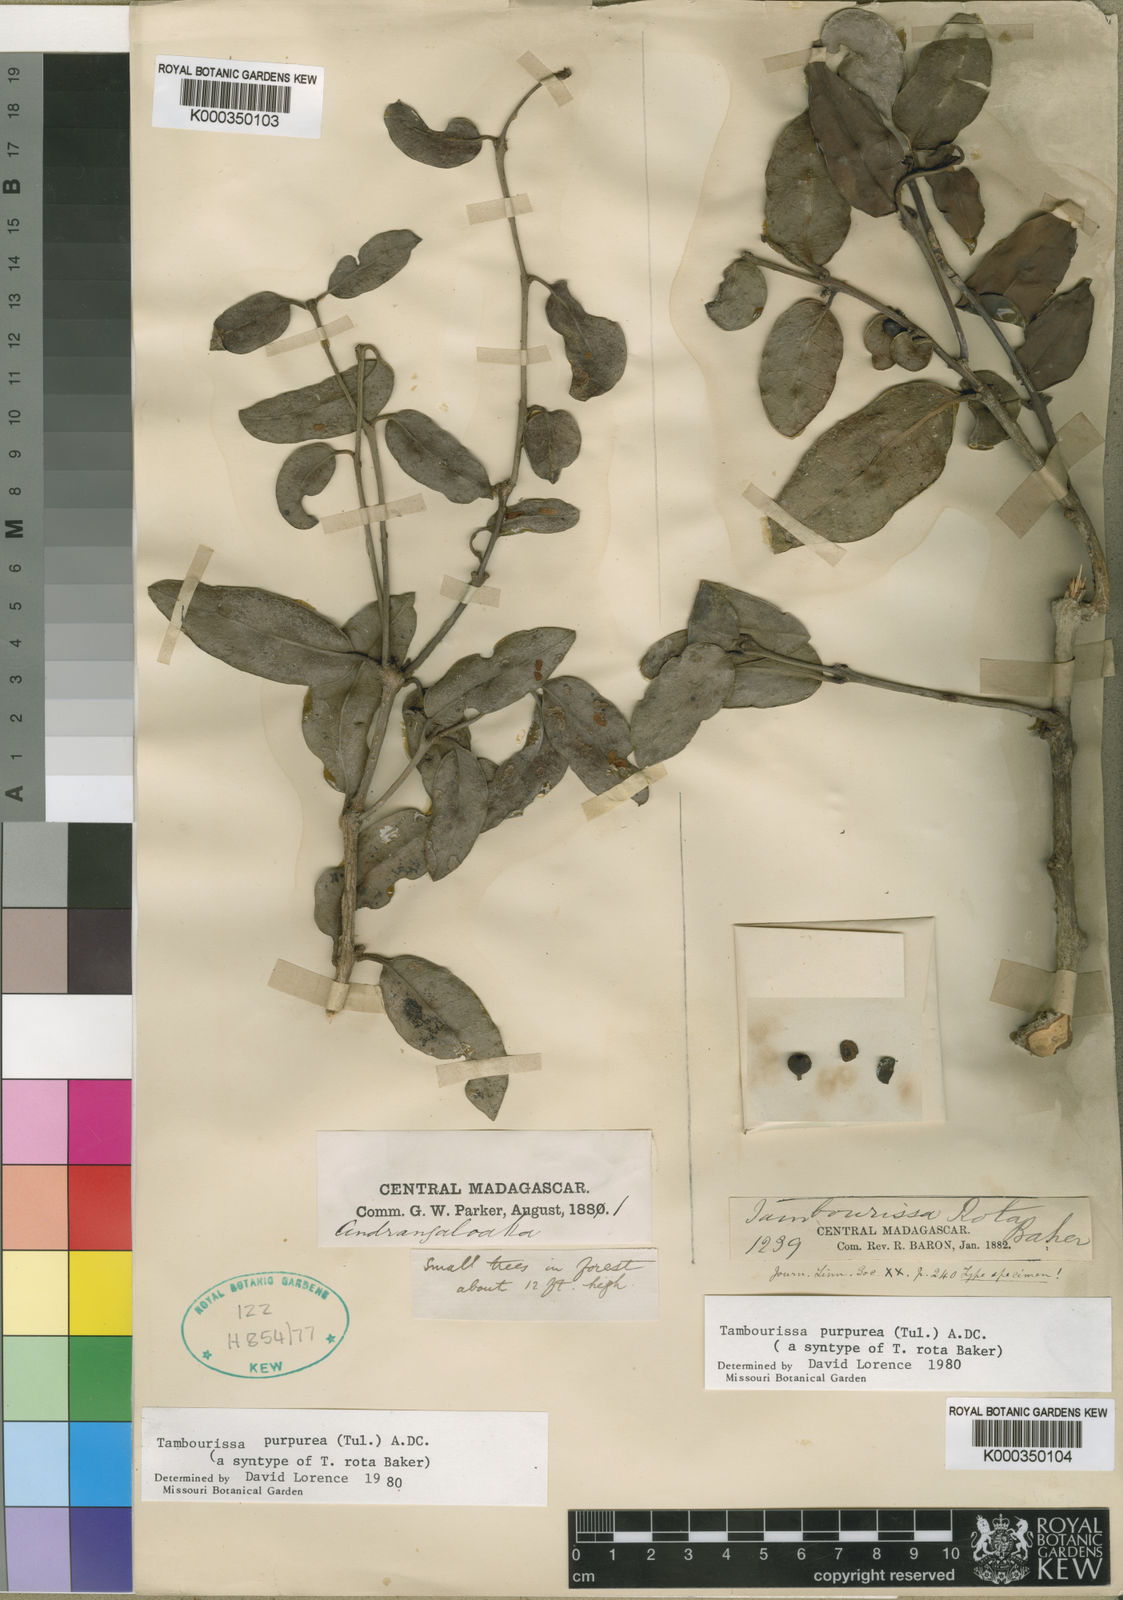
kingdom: Plantae
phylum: Tracheophyta
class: Magnoliopsida
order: Laurales
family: Monimiaceae
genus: Tambourissa
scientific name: Tambourissa purpurea
